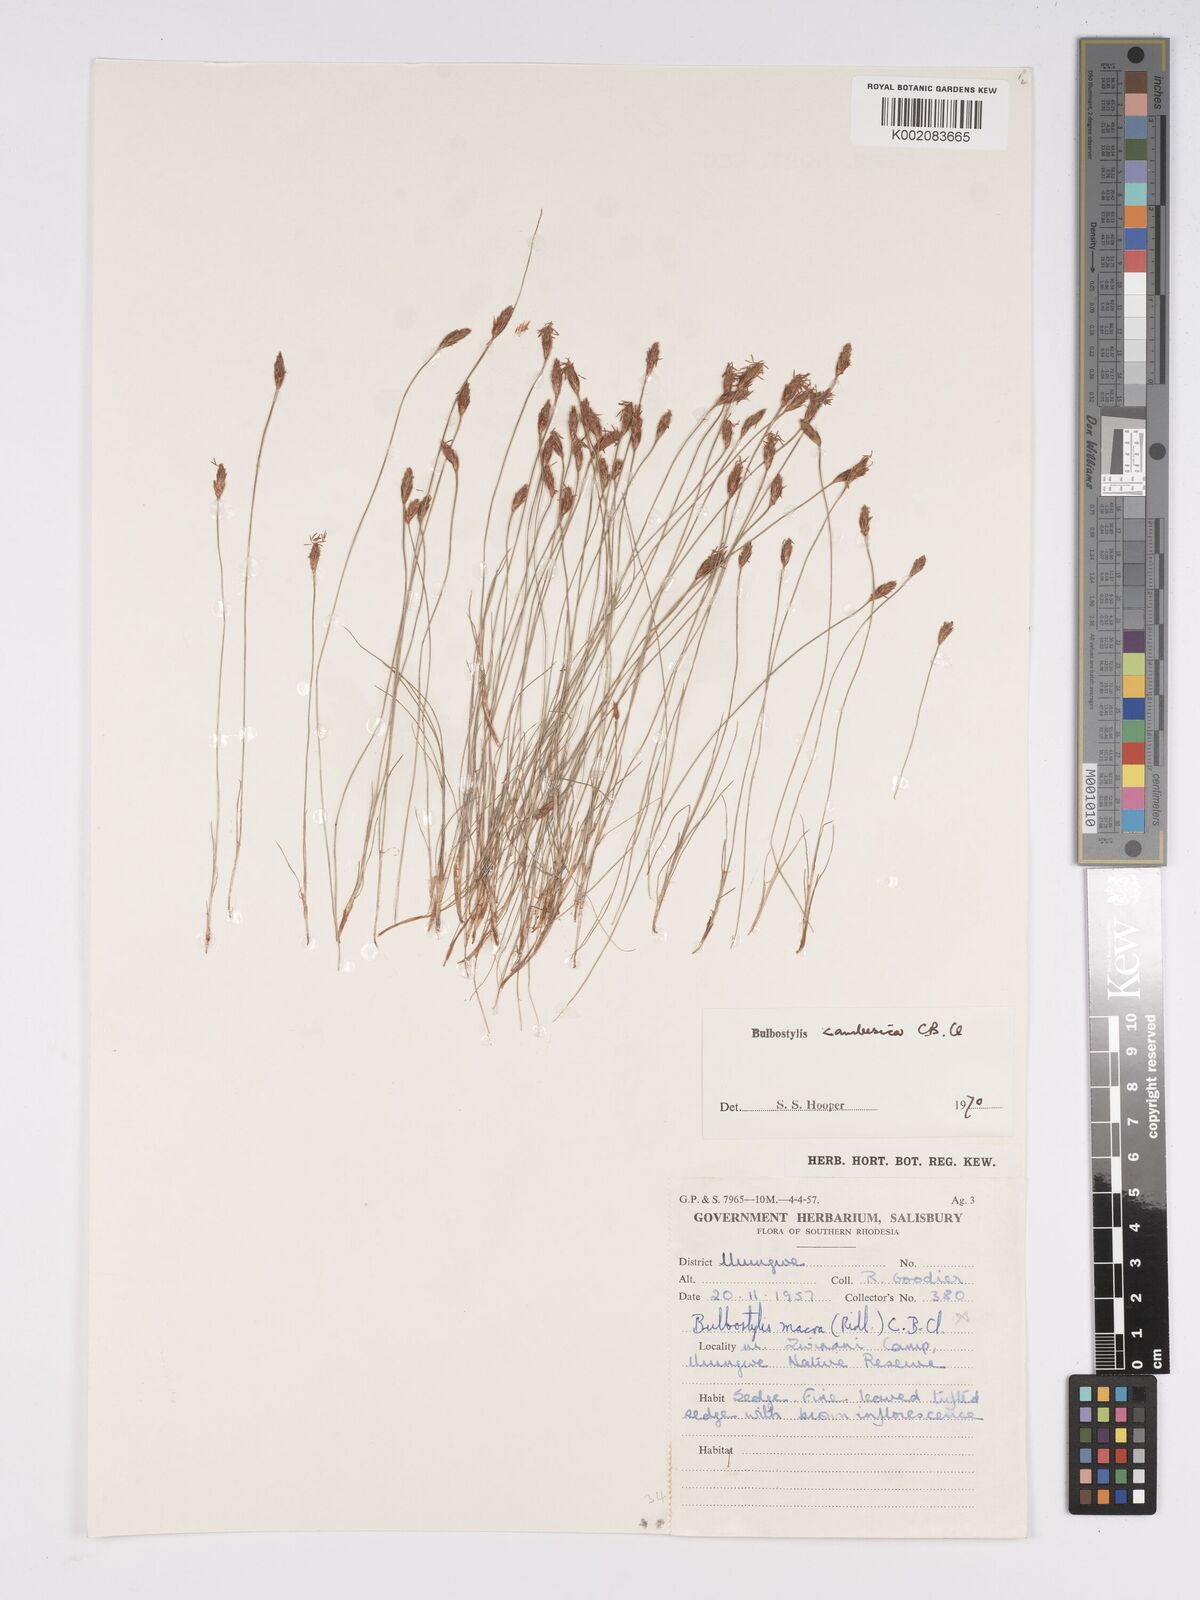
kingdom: Plantae
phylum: Tracheophyta
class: Liliopsida
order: Poales
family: Cyperaceae
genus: Bulbostylis
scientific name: Bulbostylis macra
